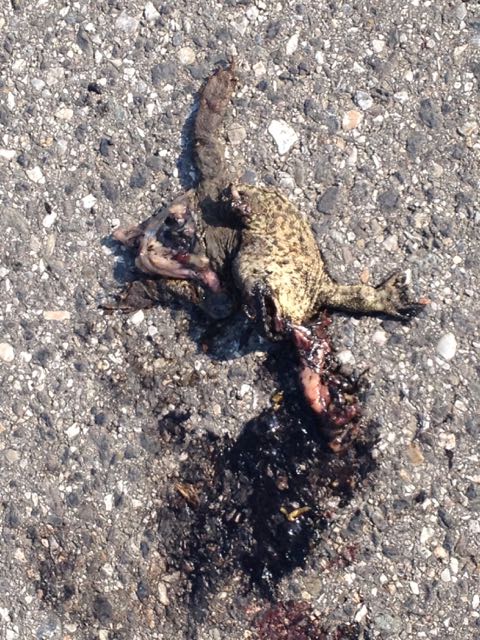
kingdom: Animalia
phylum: Chordata
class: Amphibia
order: Anura
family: Bufonidae
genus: Bufo
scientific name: Bufo bufo
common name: Common toad
